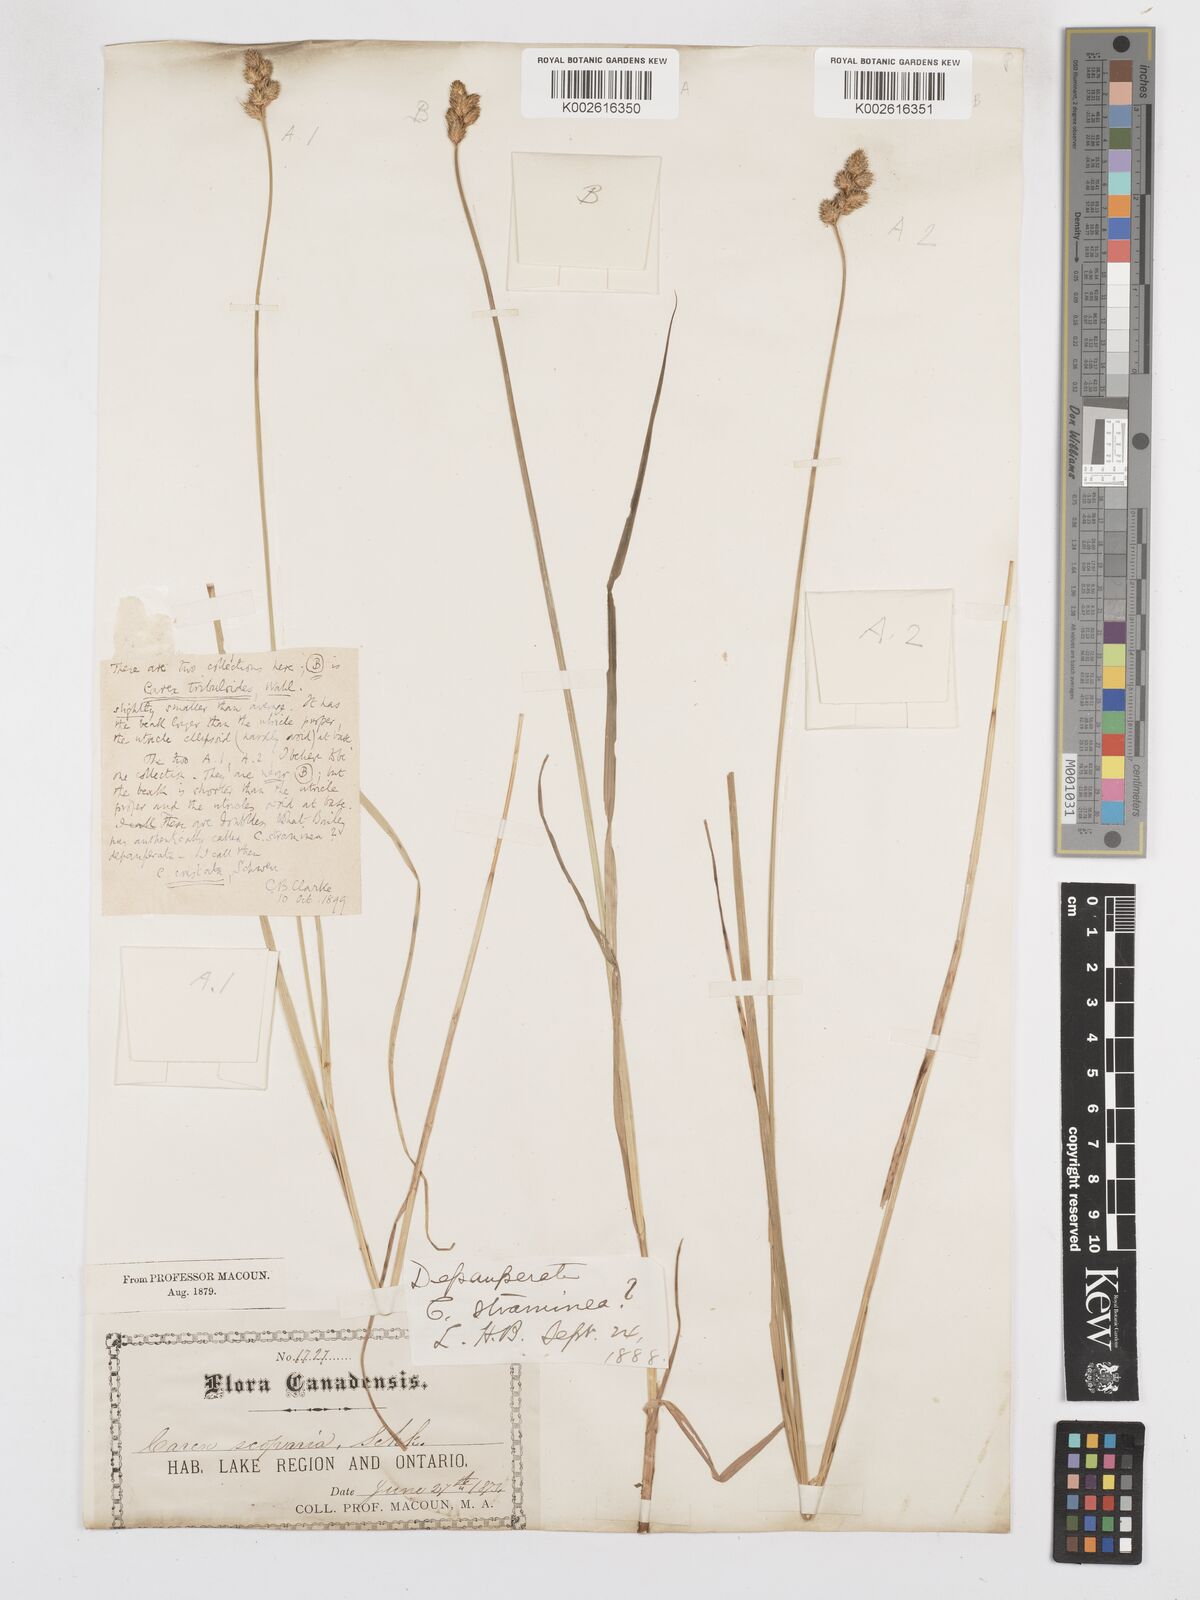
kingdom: Plantae
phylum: Tracheophyta
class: Liliopsida
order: Poales
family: Cyperaceae
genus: Carex
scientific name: Carex tribuloides
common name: Blunt broom sedge
